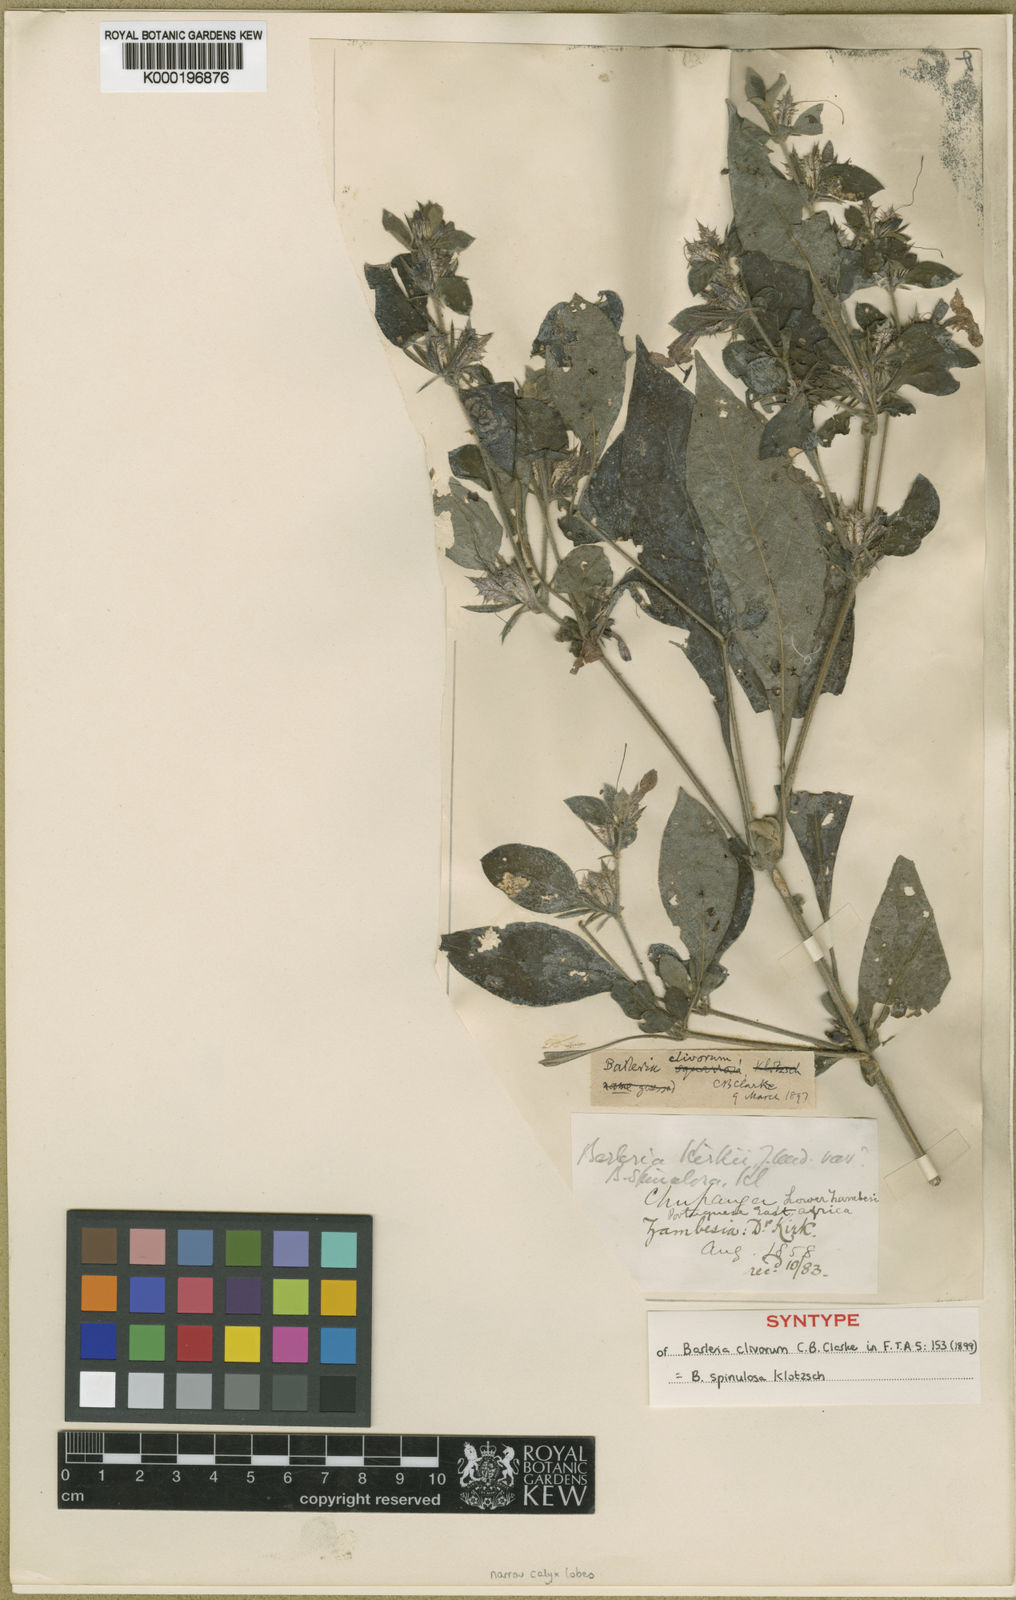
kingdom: Plantae
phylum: Tracheophyta
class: Magnoliopsida
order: Lamiales
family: Acanthaceae
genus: Barleria
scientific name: Barleria spinulosa
